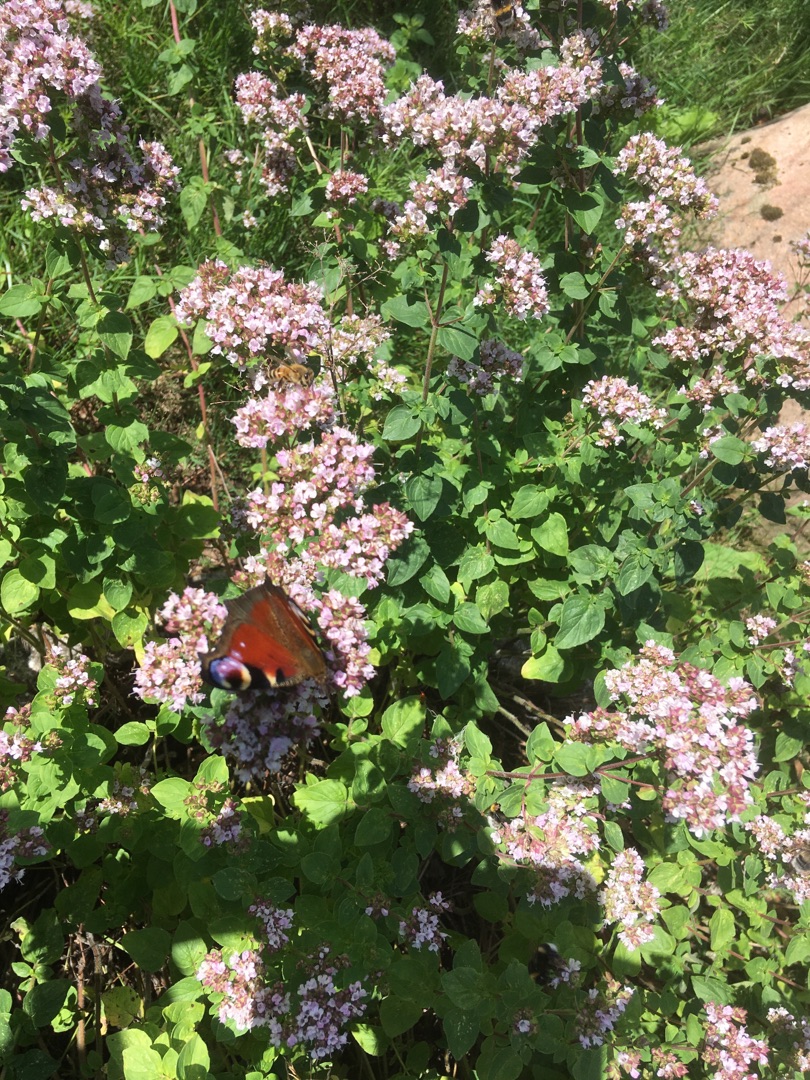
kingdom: Animalia
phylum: Arthropoda
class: Insecta
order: Lepidoptera
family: Nymphalidae
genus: Aglais
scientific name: Aglais io
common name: Dagpåfugleøje
